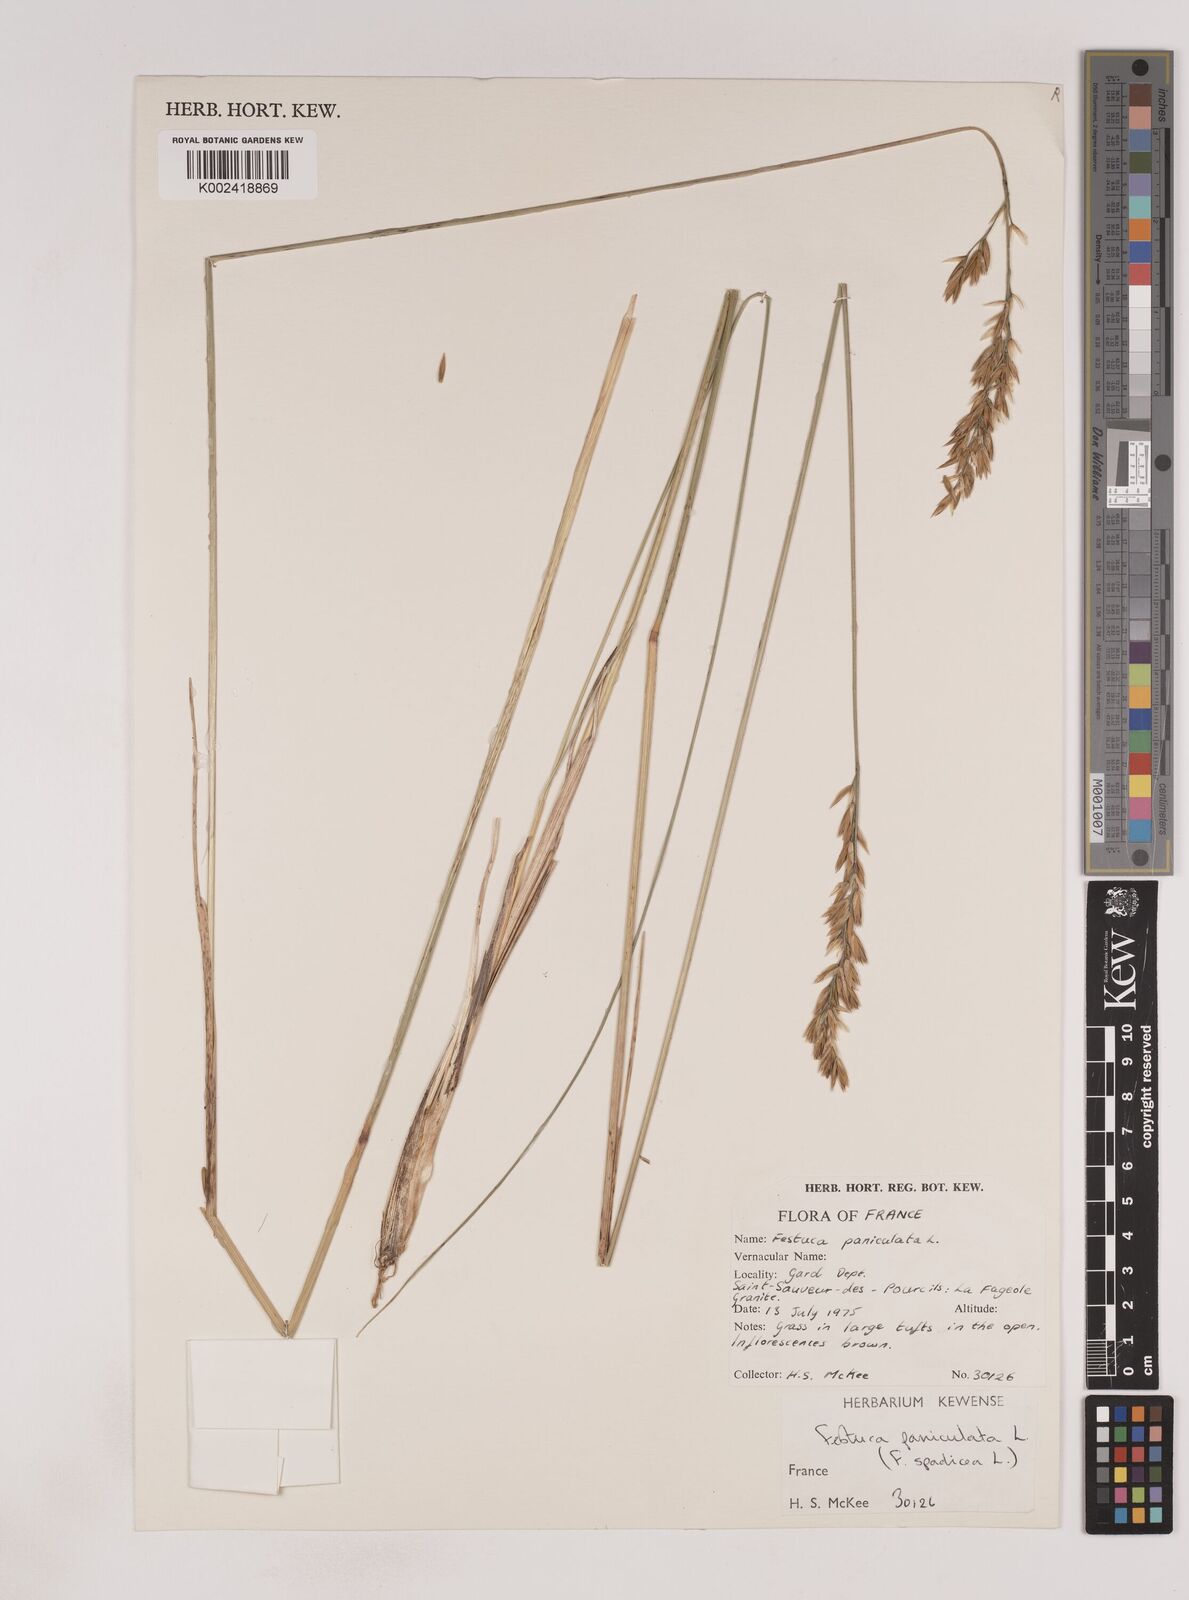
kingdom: Plantae
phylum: Tracheophyta
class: Liliopsida
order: Poales
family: Poaceae
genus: Patzkea
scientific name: Patzkea paniculata
